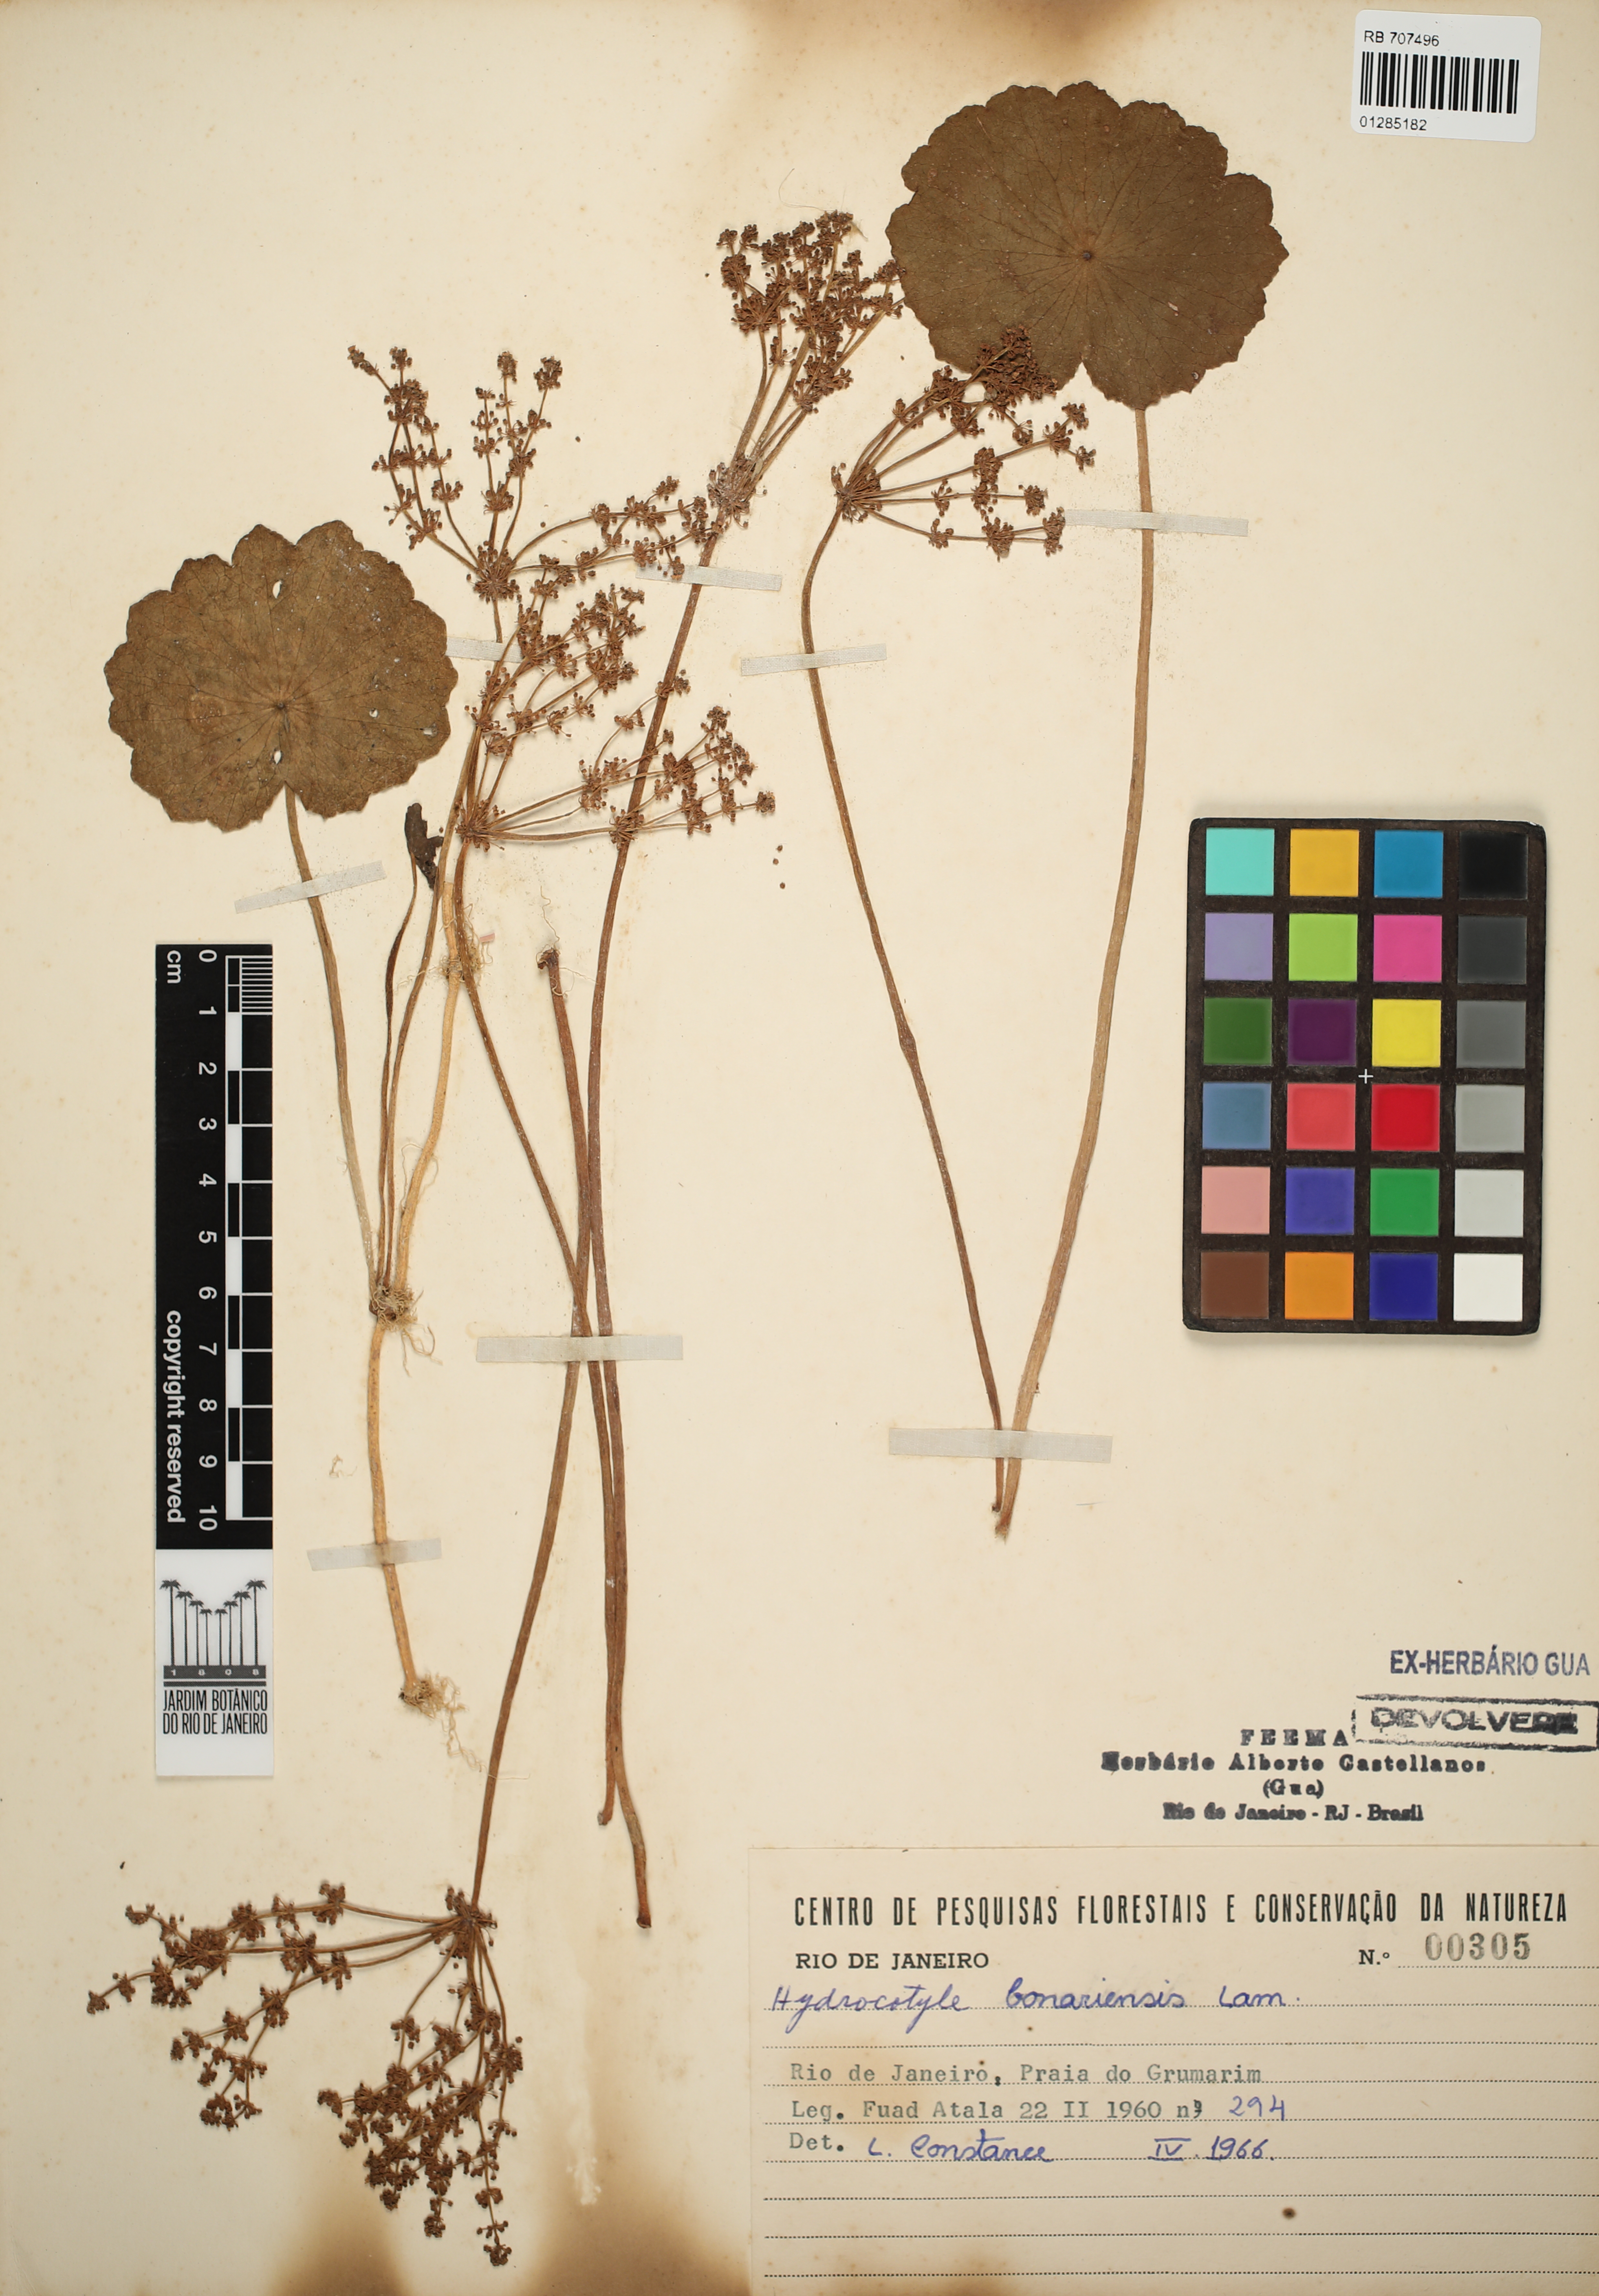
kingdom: Plantae
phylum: Tracheophyta
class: Magnoliopsida
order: Apiales
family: Araliaceae
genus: Hydrocotyle
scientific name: Hydrocotyle bonariensis
